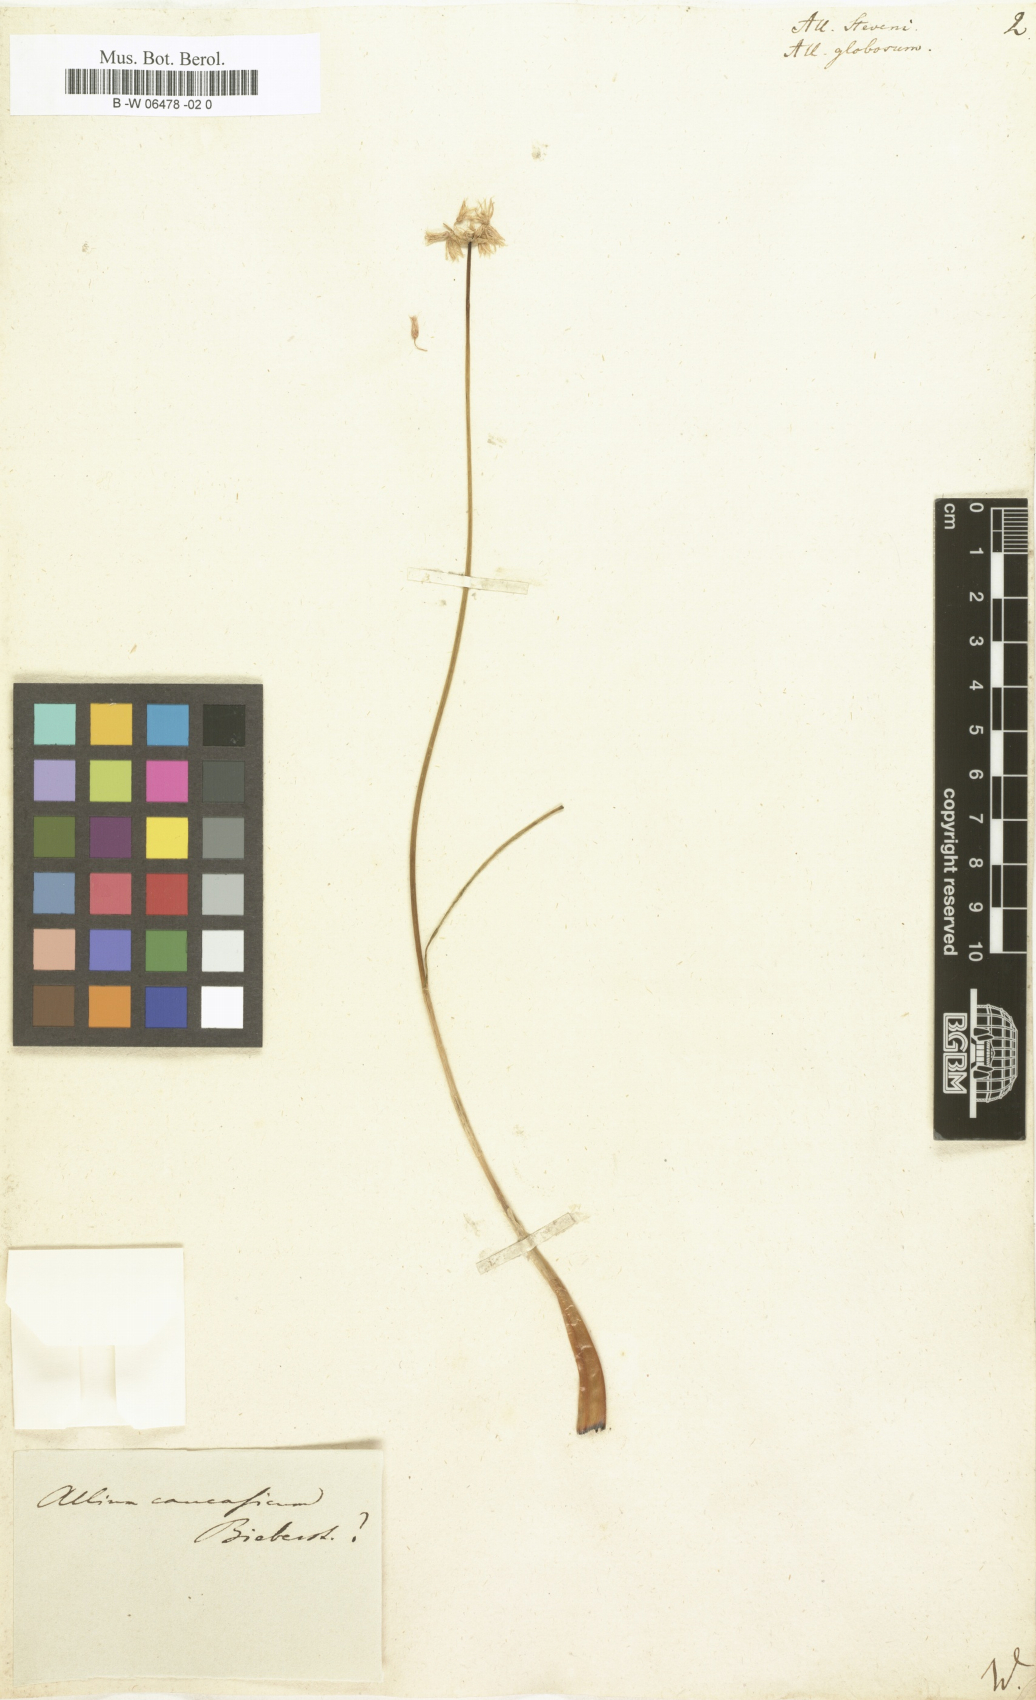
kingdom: Plantae
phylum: Tracheophyta
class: Liliopsida
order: Asparagales
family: Amaryllidaceae
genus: Allium
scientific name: Allium saxatile
